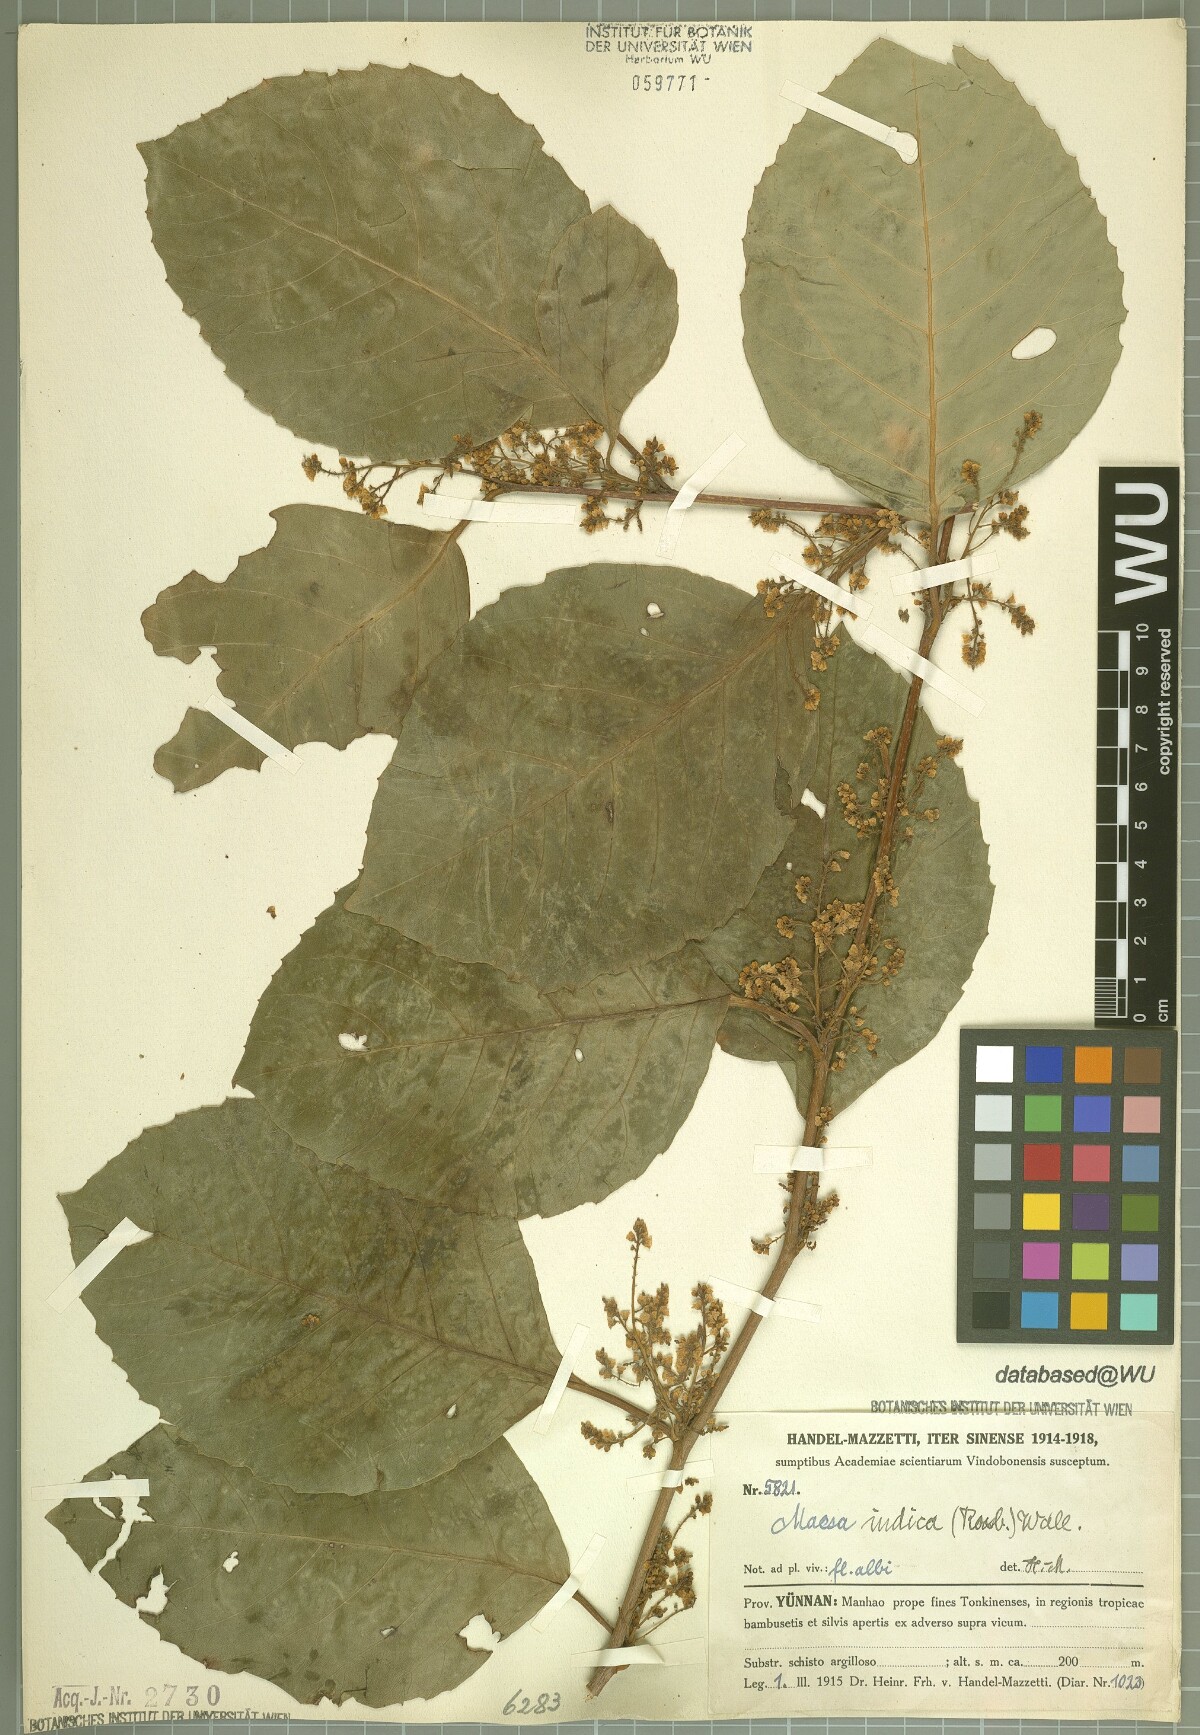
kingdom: Plantae
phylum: Tracheophyta
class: Magnoliopsida
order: Ericales
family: Primulaceae
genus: Maesa
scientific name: Maesa indica
